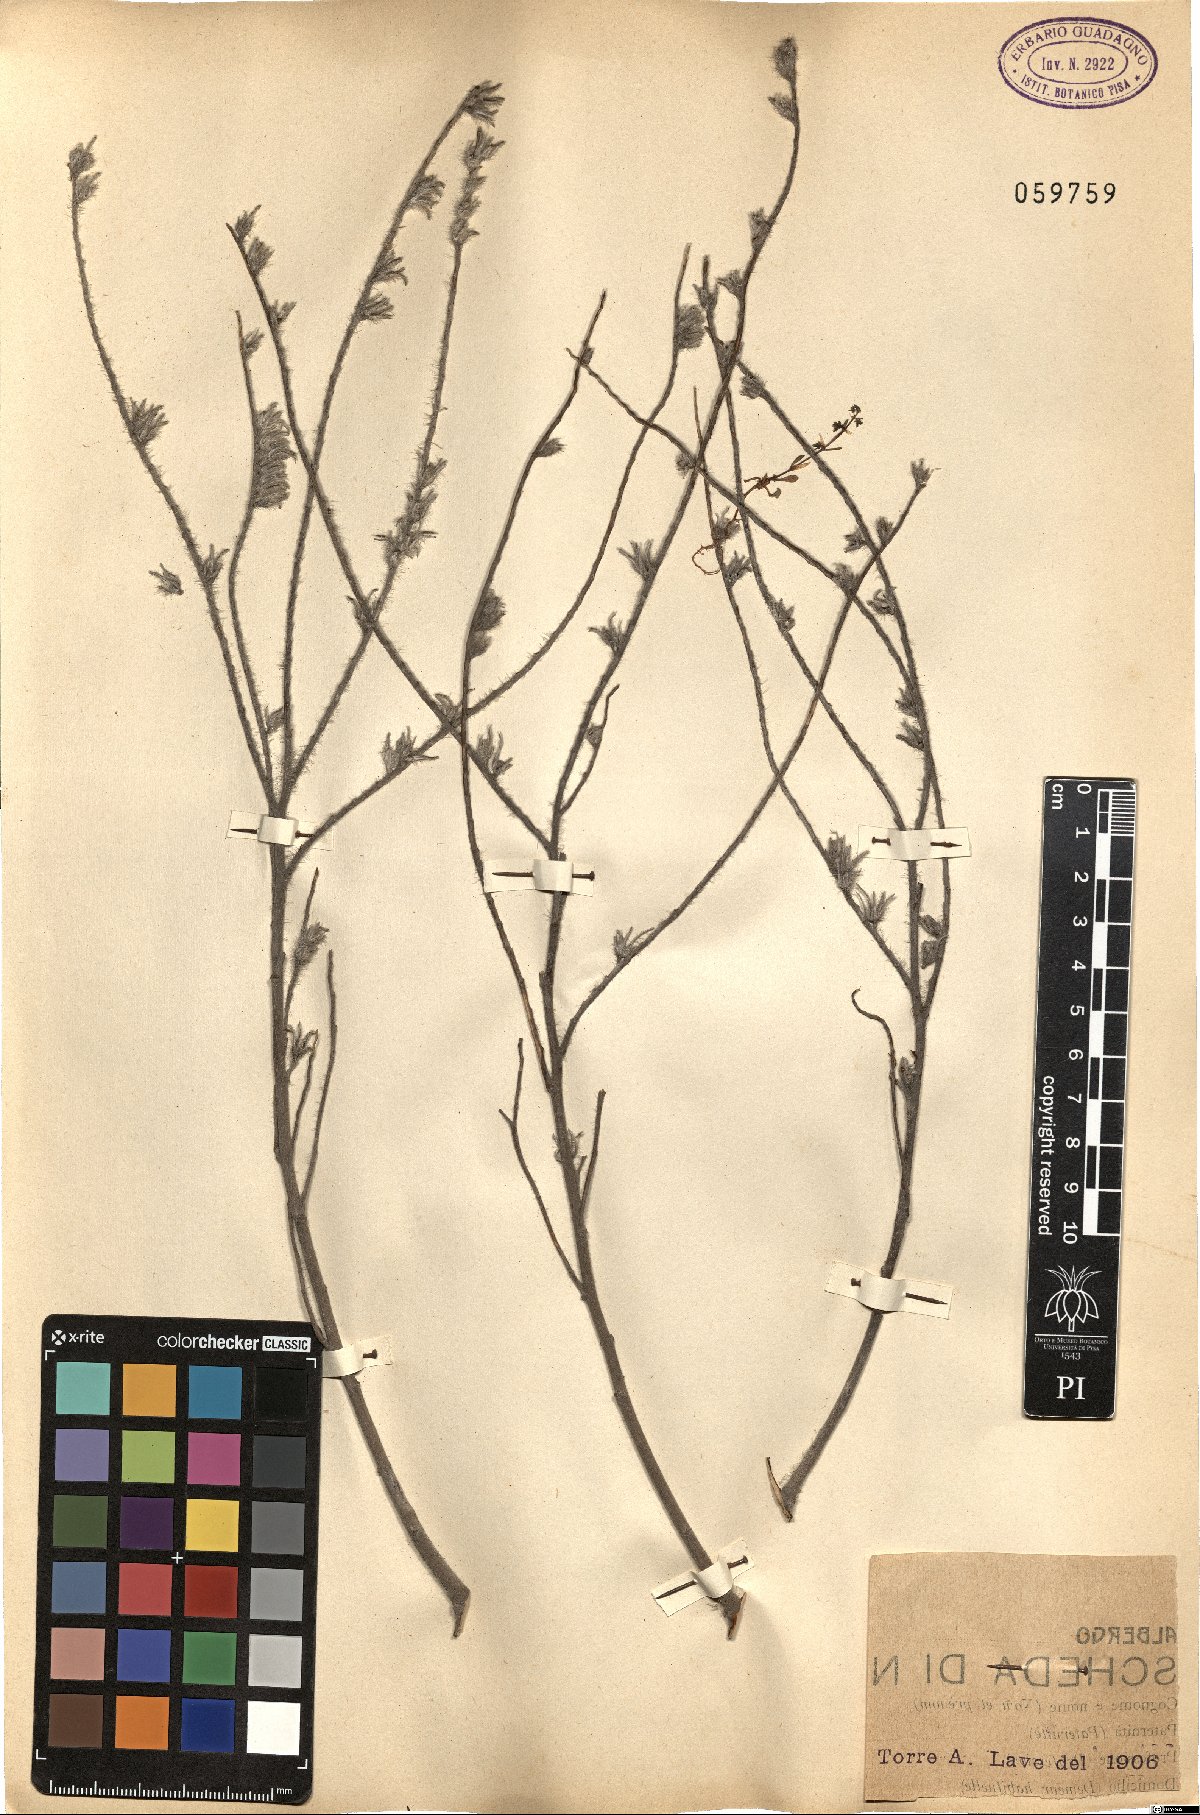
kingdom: Plantae
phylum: Tracheophyta
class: Magnoliopsida
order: Boraginales
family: Boraginaceae
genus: Echium
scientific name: Echium
